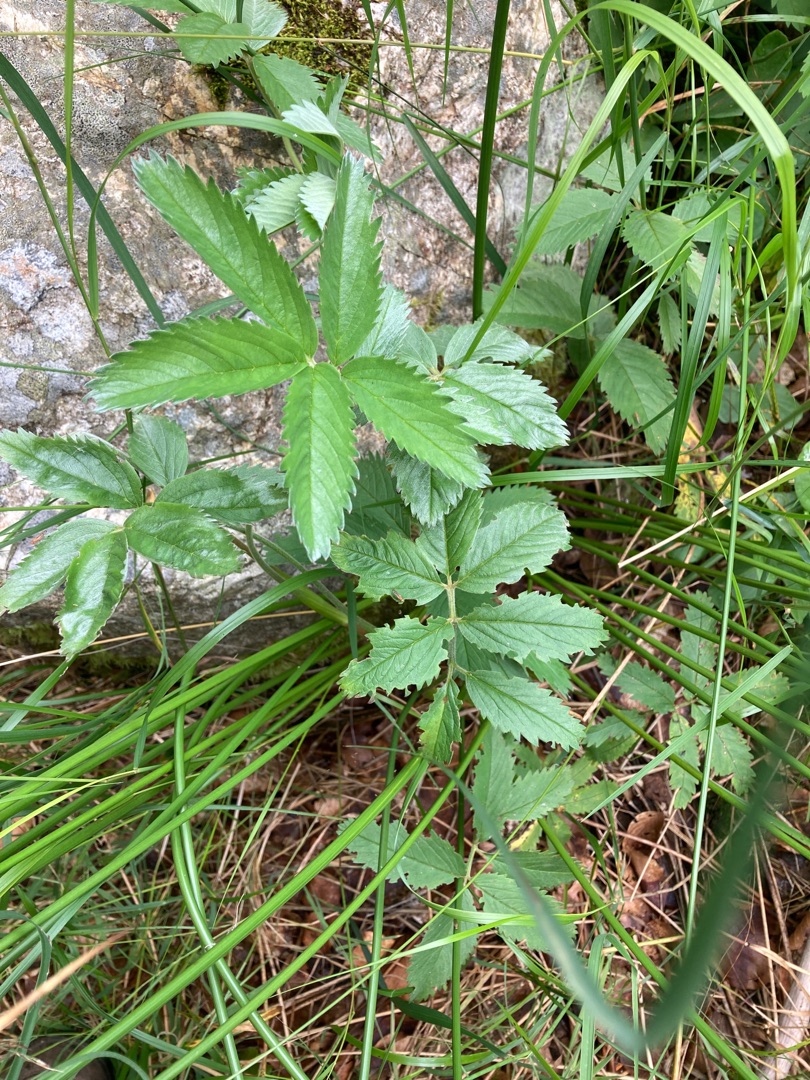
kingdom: Plantae
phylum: Tracheophyta
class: Magnoliopsida
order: Rosales
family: Rosaceae
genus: Comarum
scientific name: Comarum palustre
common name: Kragefod
